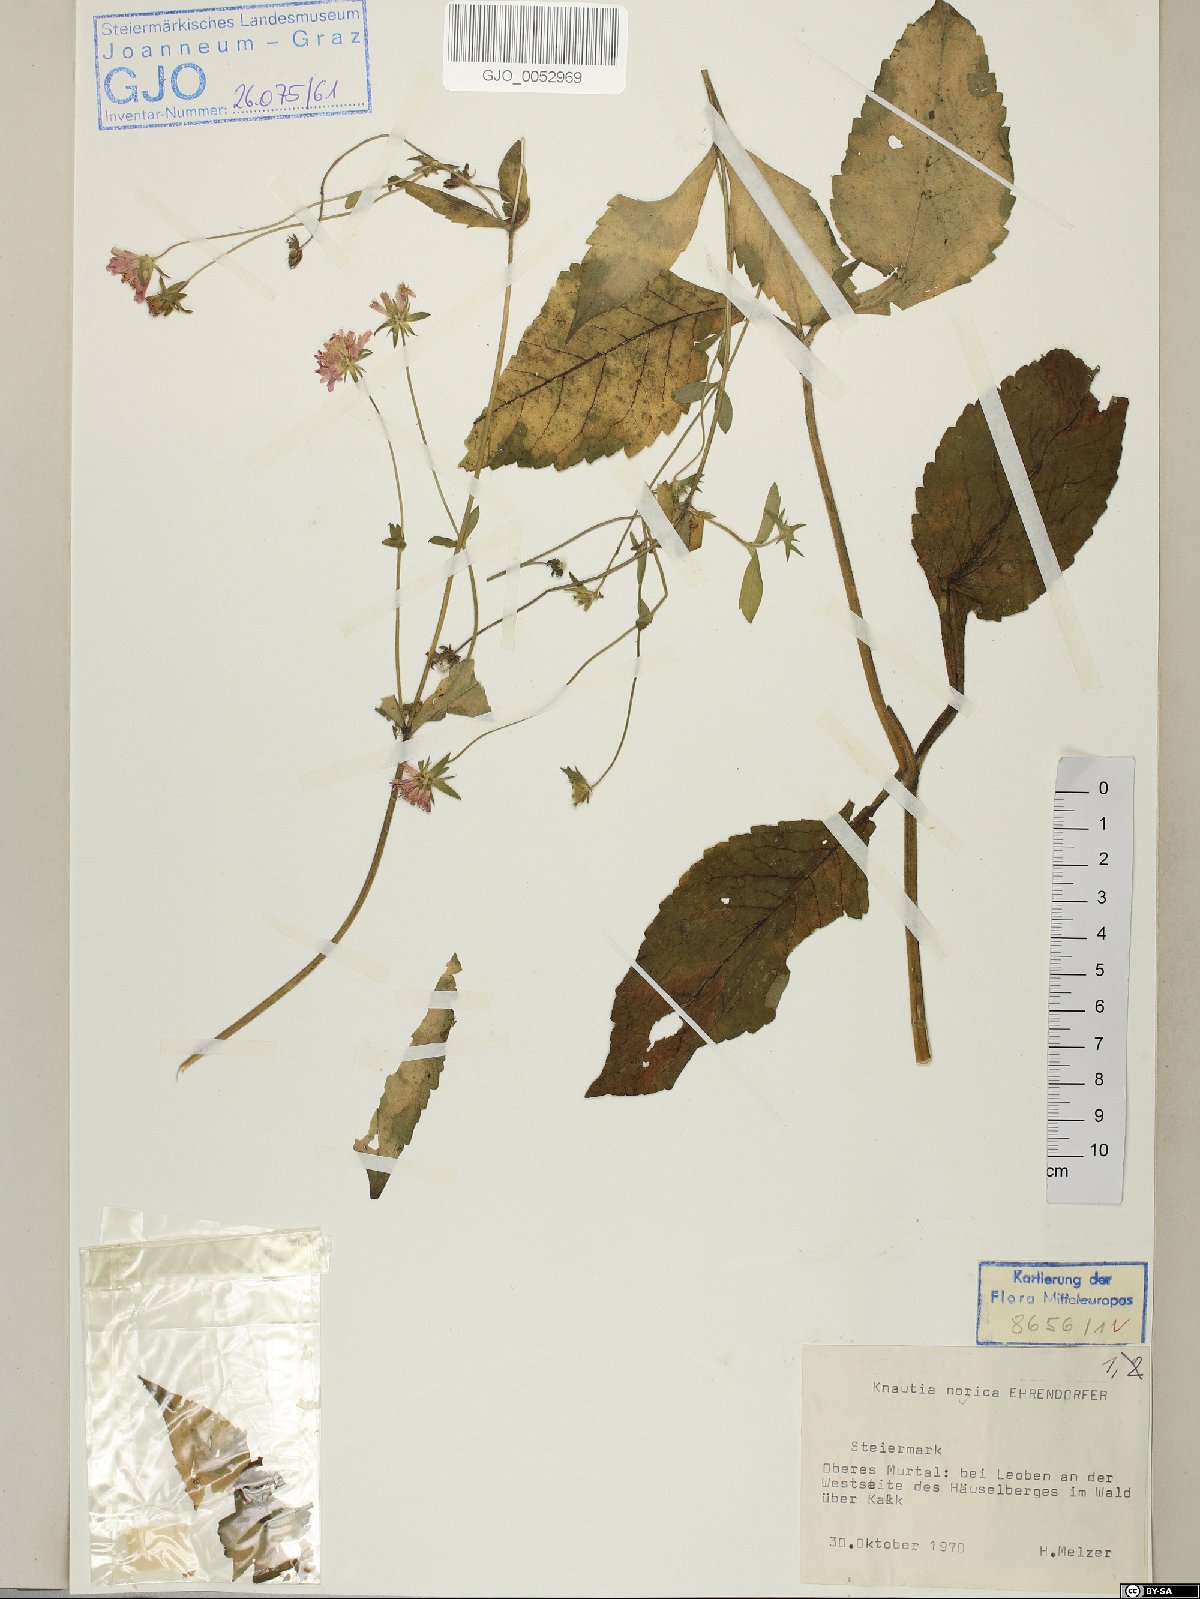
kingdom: Plantae
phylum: Tracheophyta
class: Magnoliopsida
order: Dipsacales
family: Caprifoliaceae
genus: Knautia
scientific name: Knautia norica
